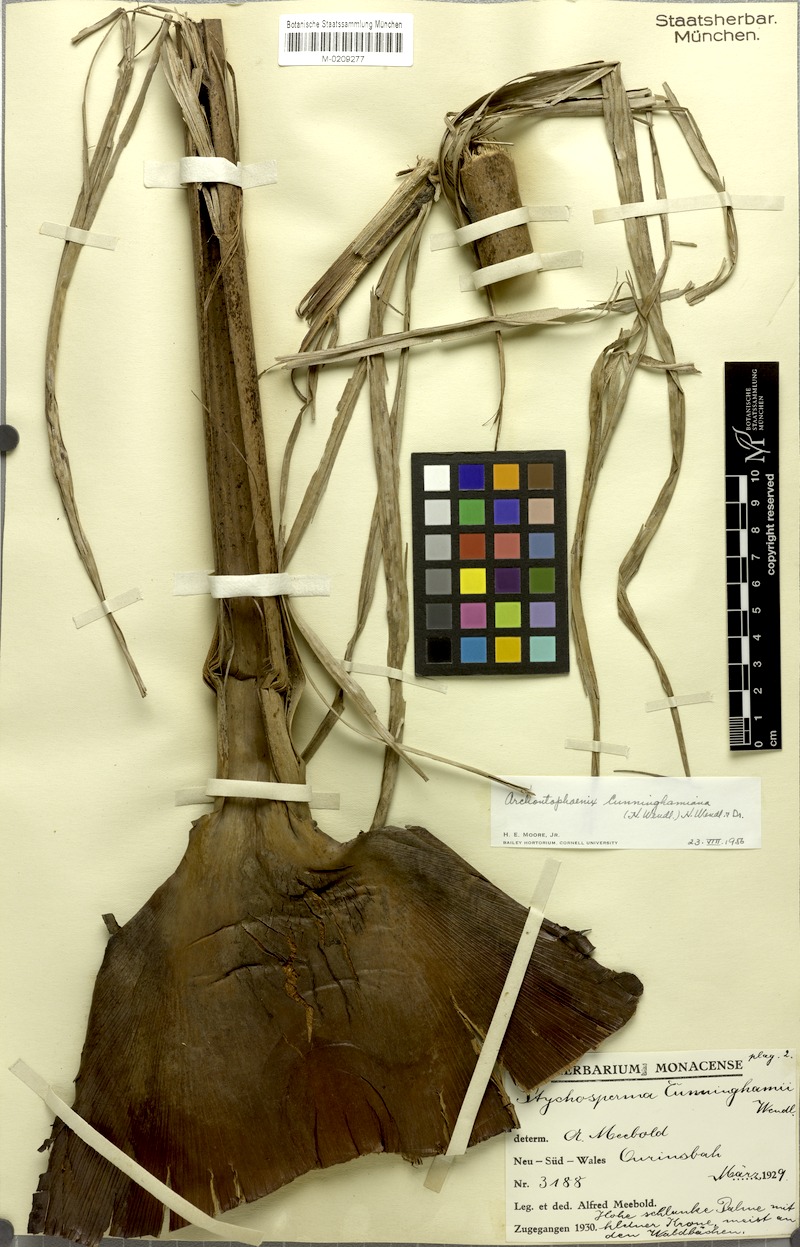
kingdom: Plantae
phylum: Tracheophyta
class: Liliopsida
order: Arecales
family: Arecaceae
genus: Archontophoenix
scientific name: Archontophoenix cunninghamiana
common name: Piccabeen bangalow palm
